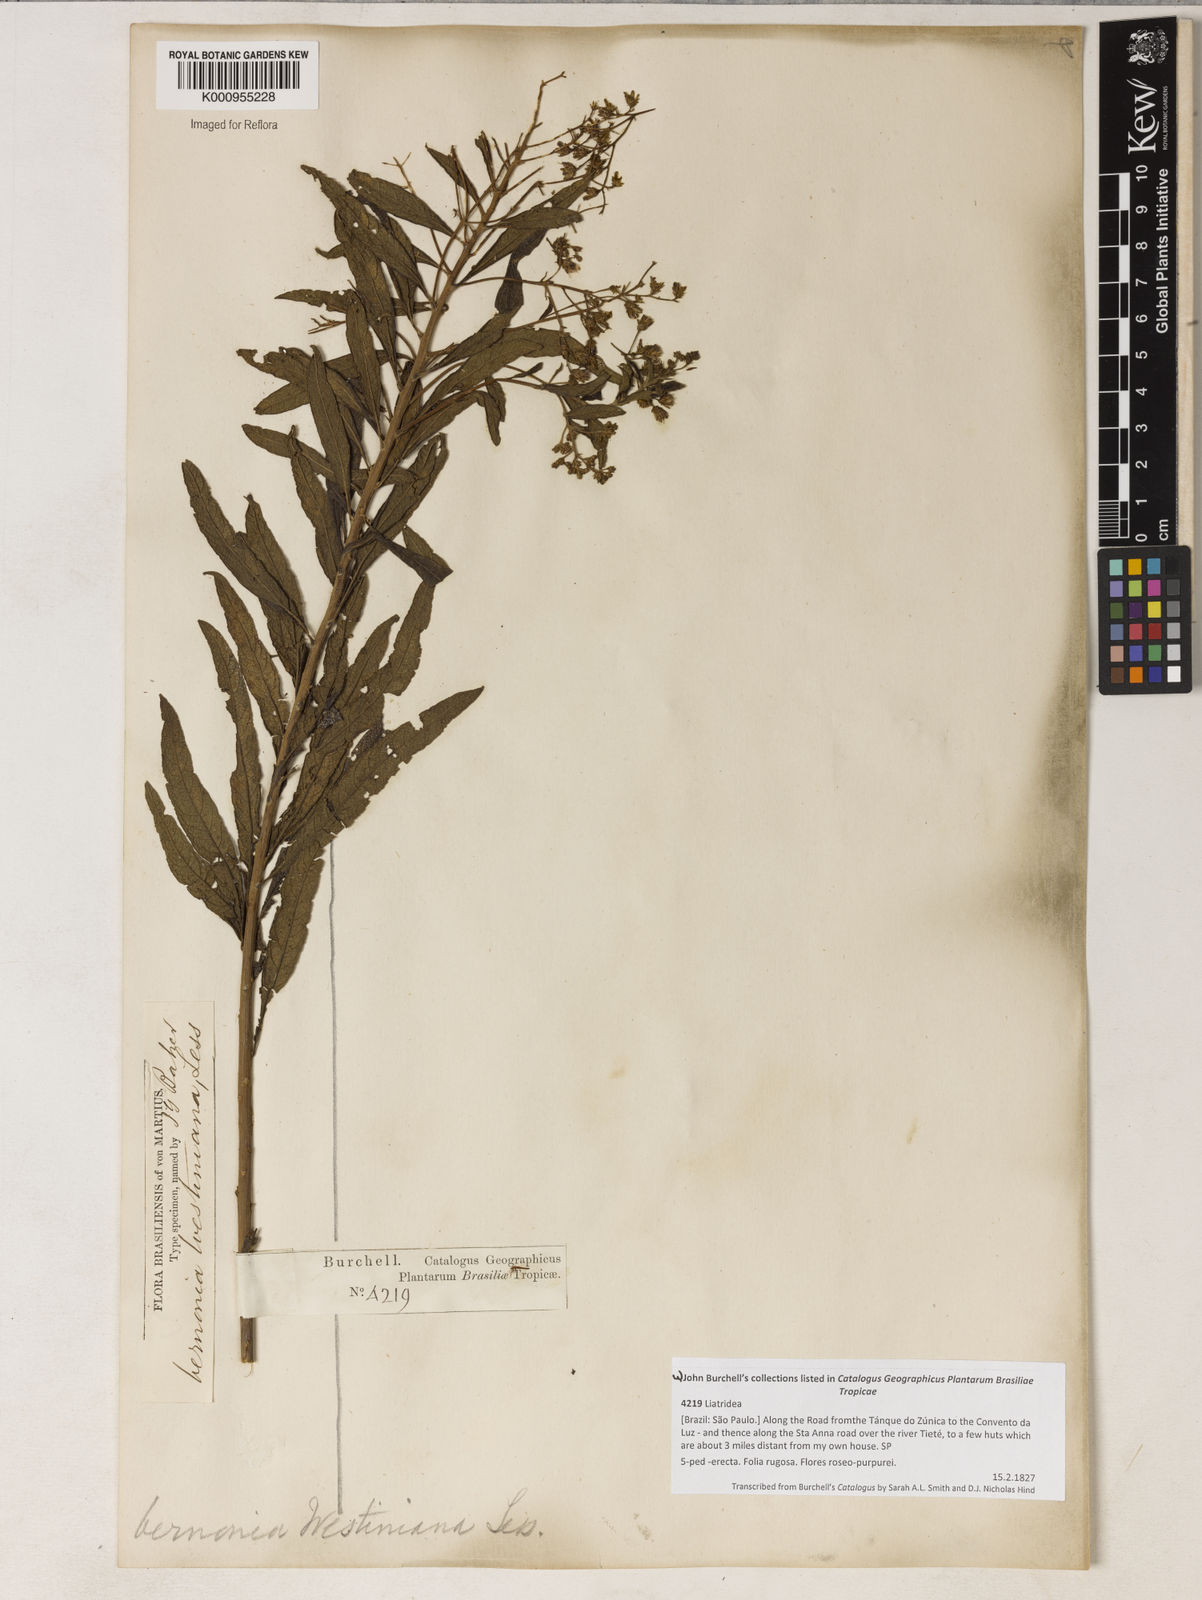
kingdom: Plantae
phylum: Tracheophyta
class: Magnoliopsida
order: Asterales
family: Asteraceae
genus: Vernonanthura
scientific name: Vernonanthura westiniana
